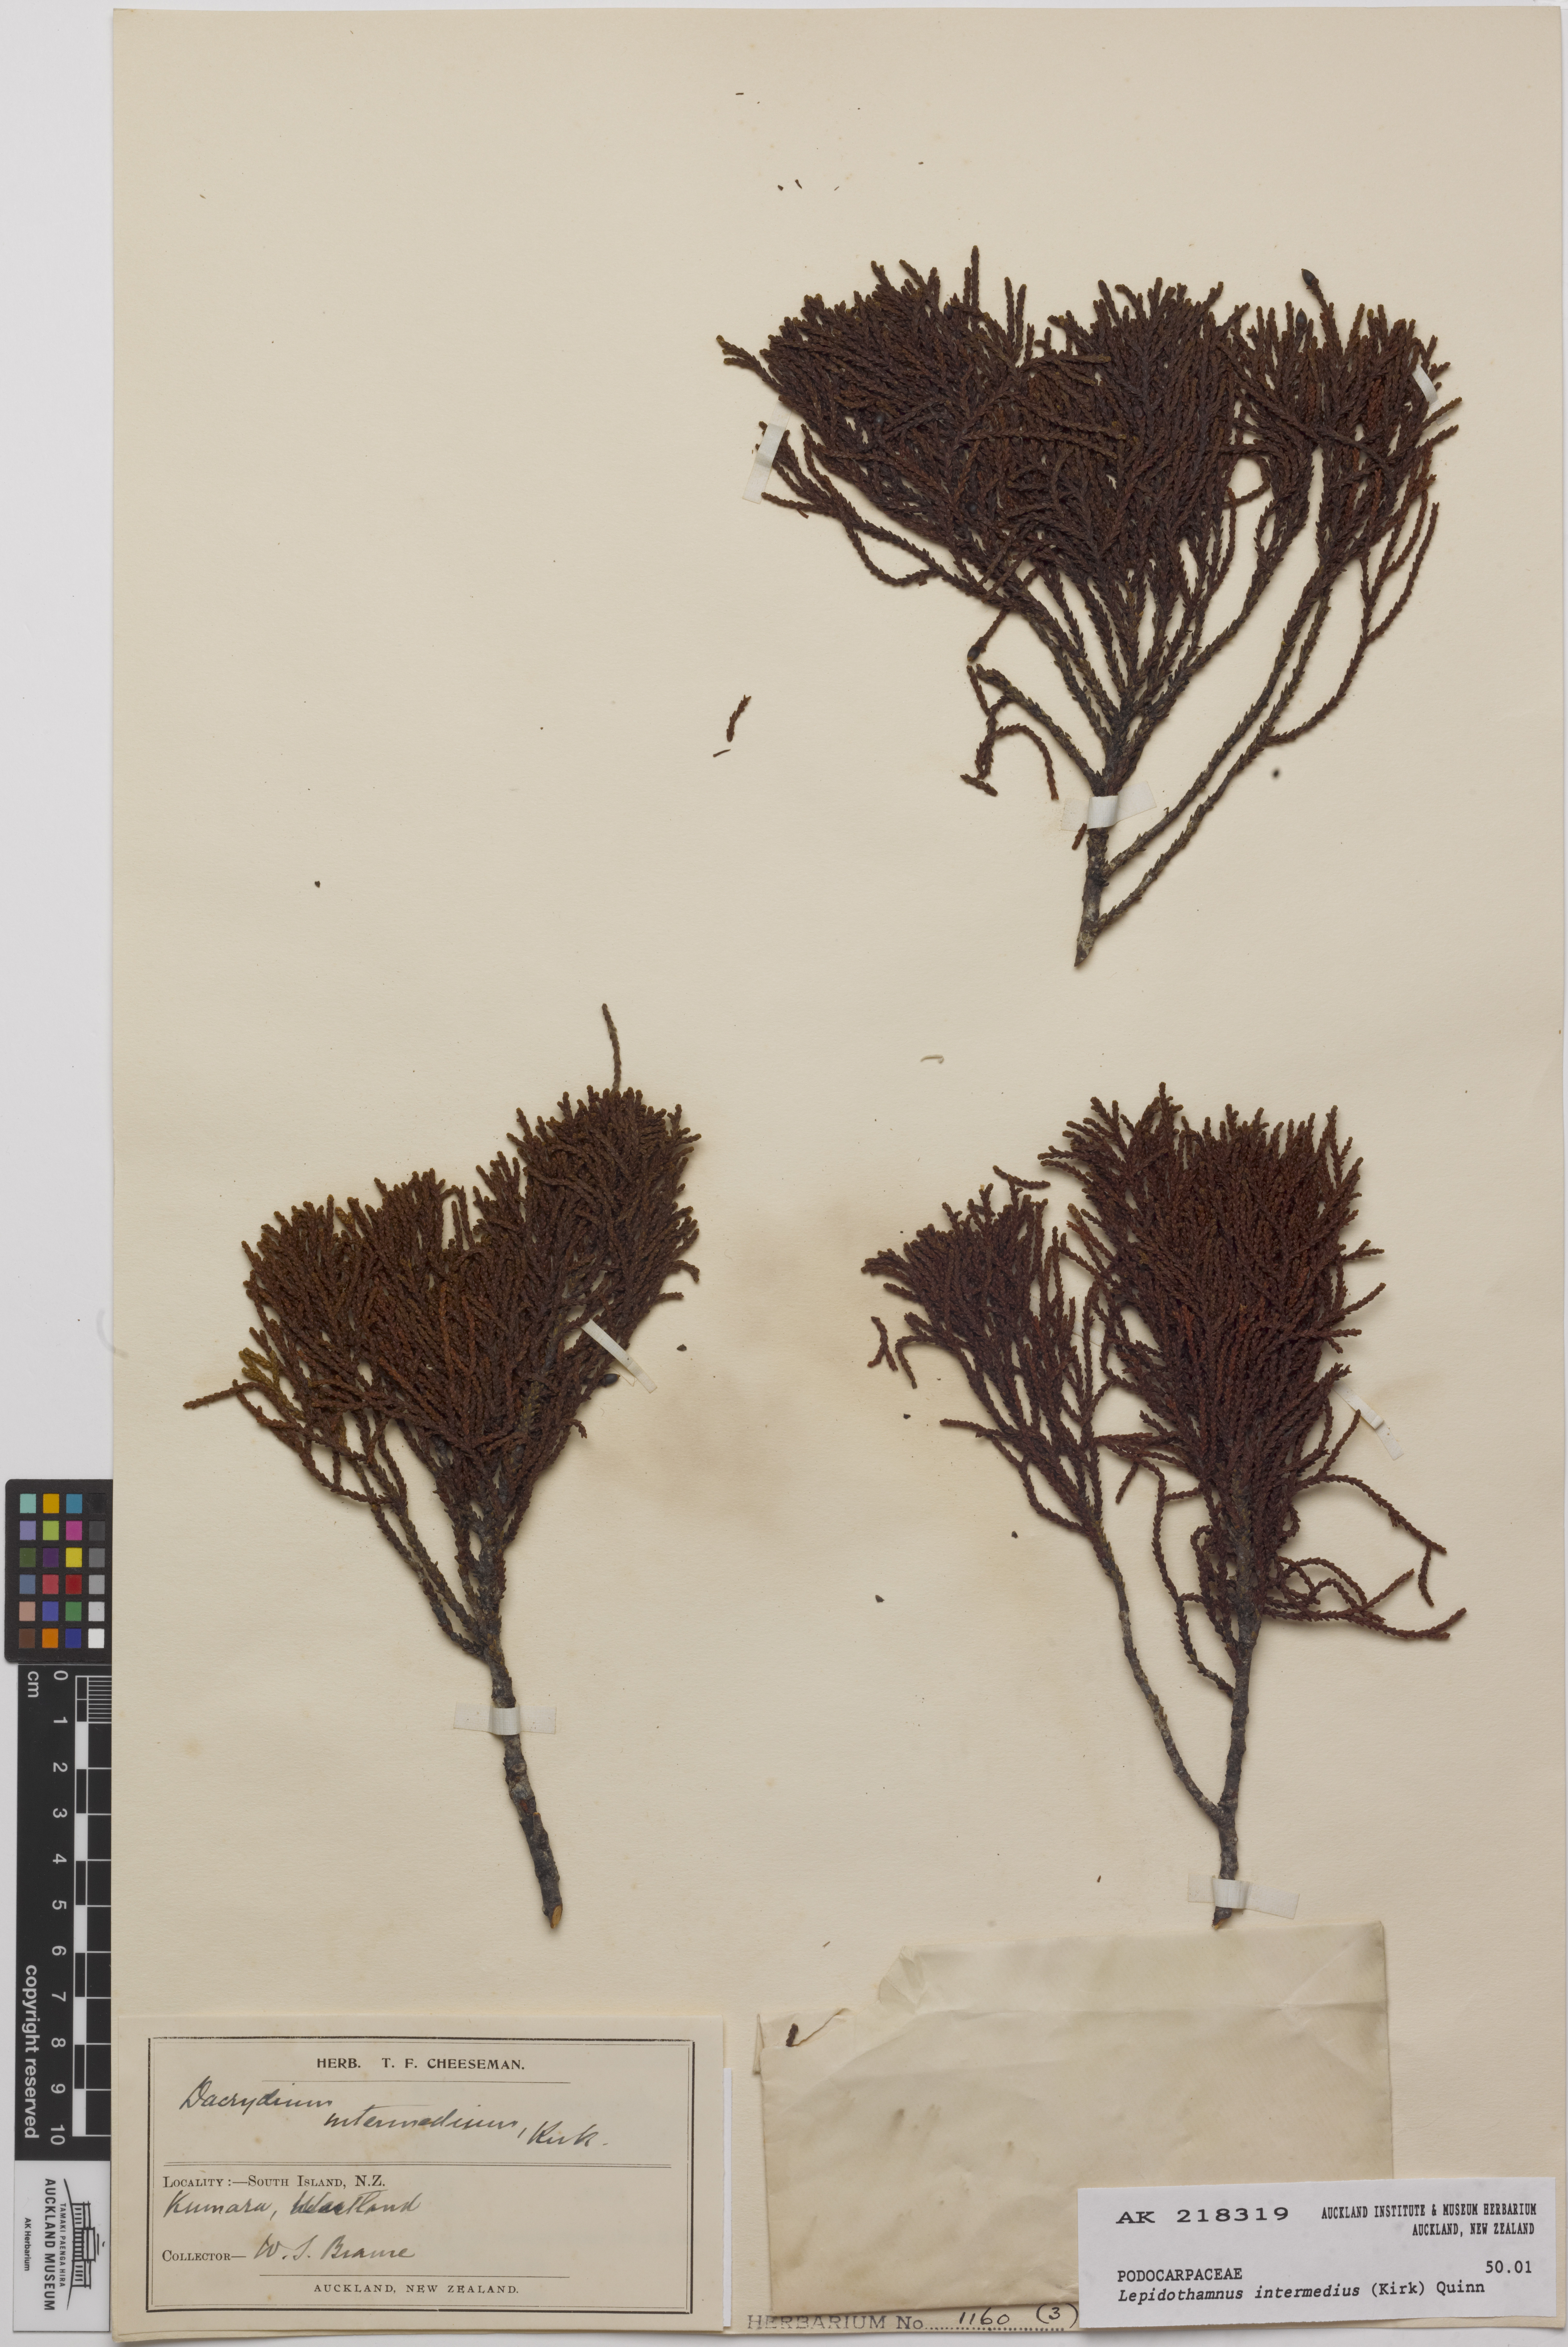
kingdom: Plantae
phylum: Tracheophyta
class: Pinopsida
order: Pinales
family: Podocarpaceae
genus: Lepidothamnus
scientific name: Lepidothamnus intermedius
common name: Yellow silver pine
